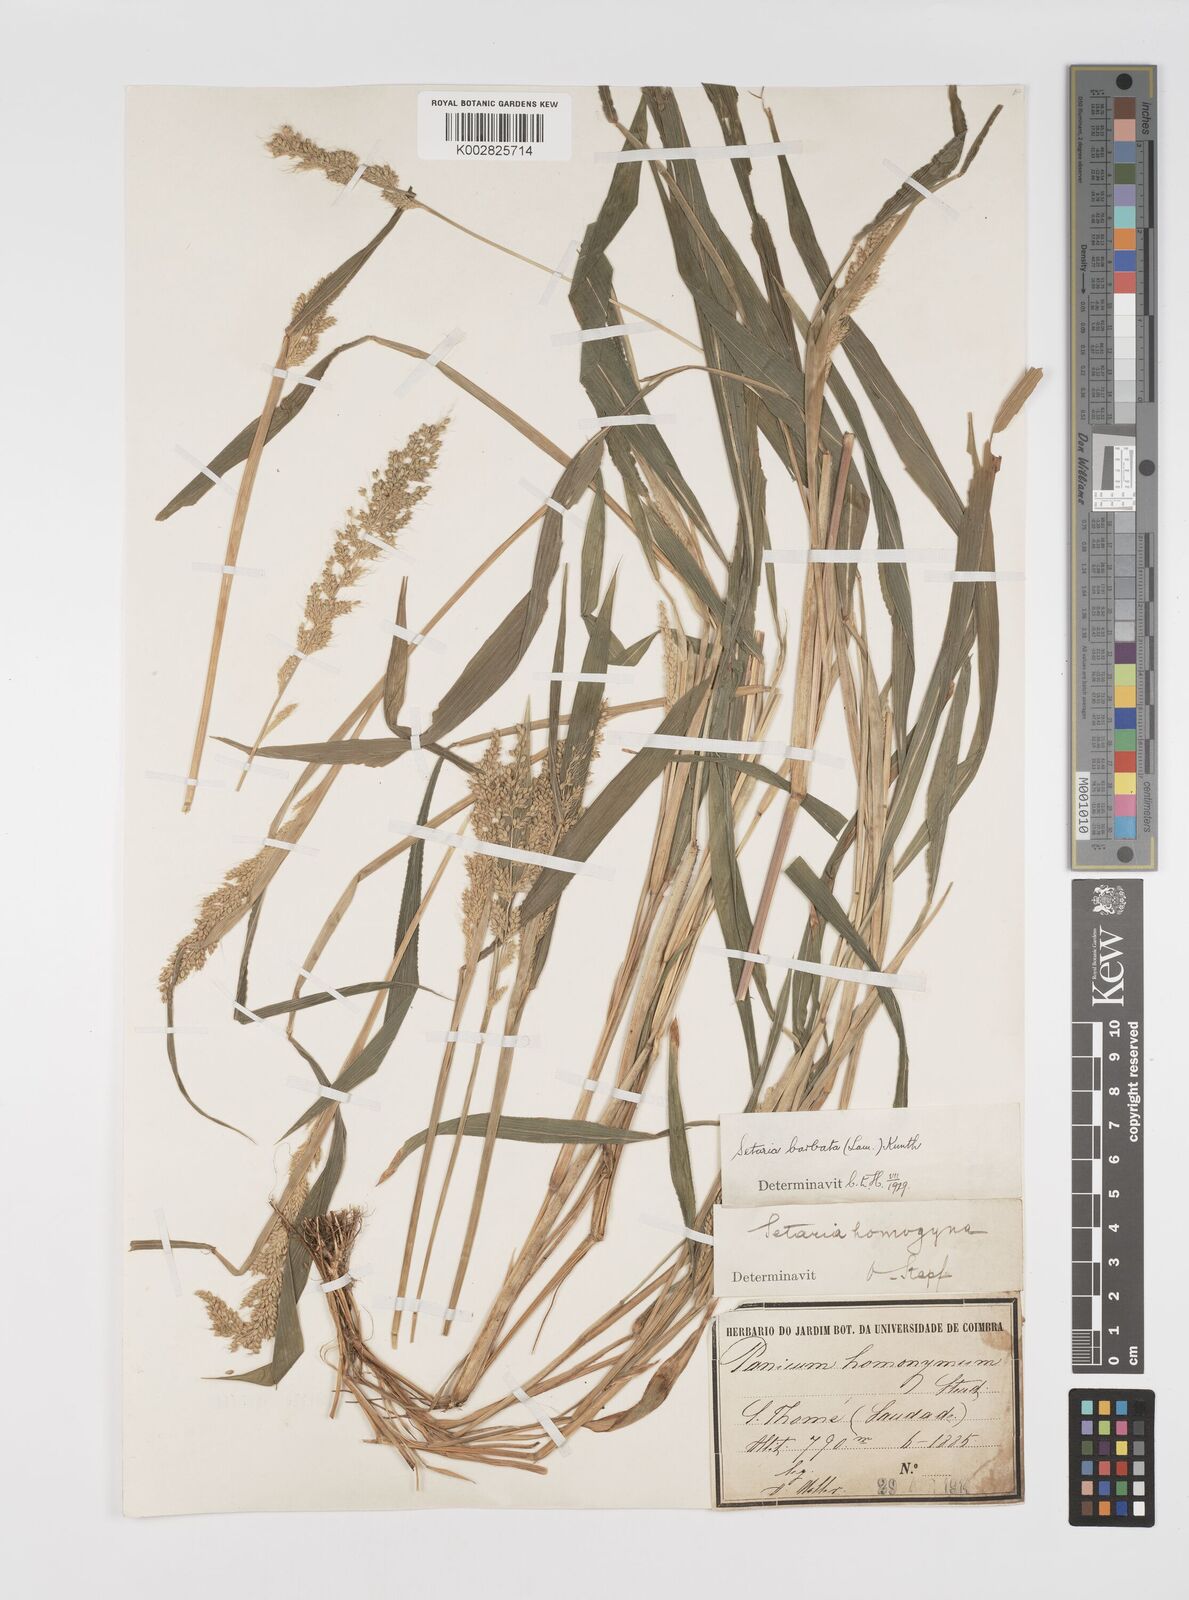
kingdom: Plantae
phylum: Tracheophyta
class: Liliopsida
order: Poales
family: Poaceae
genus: Setaria
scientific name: Setaria barbata
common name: East indian bristlegrass
